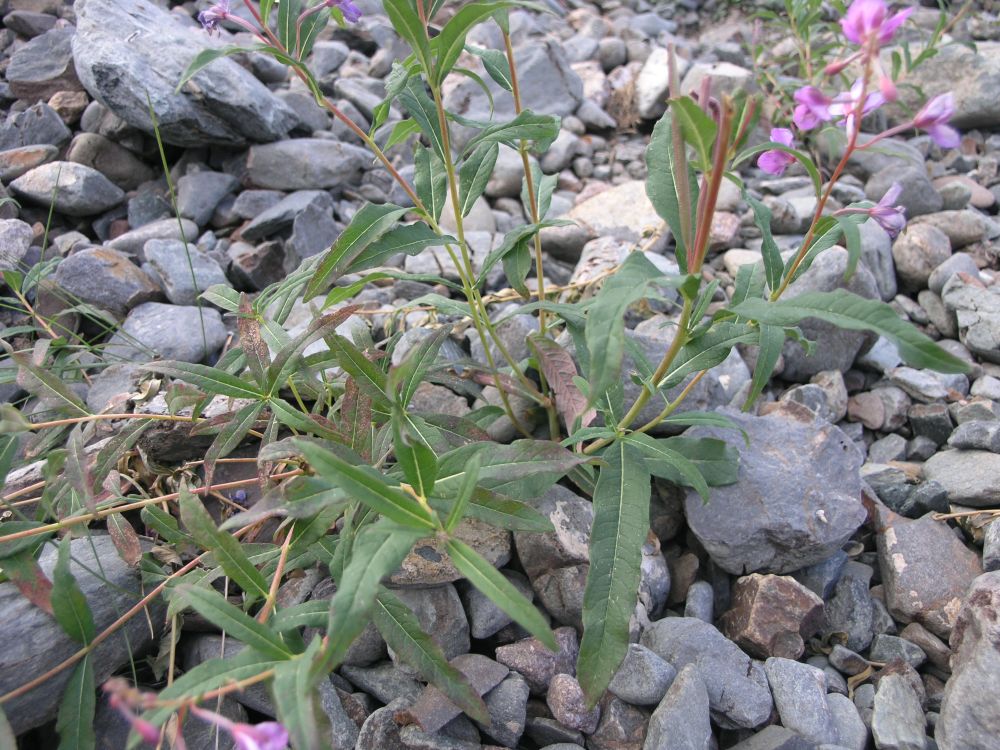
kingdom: Plantae
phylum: Tracheophyta
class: Magnoliopsida
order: Myrtales
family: Onagraceae
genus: Chamaenerion
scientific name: Chamaenerion latifolium
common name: Dwarf fireweed
